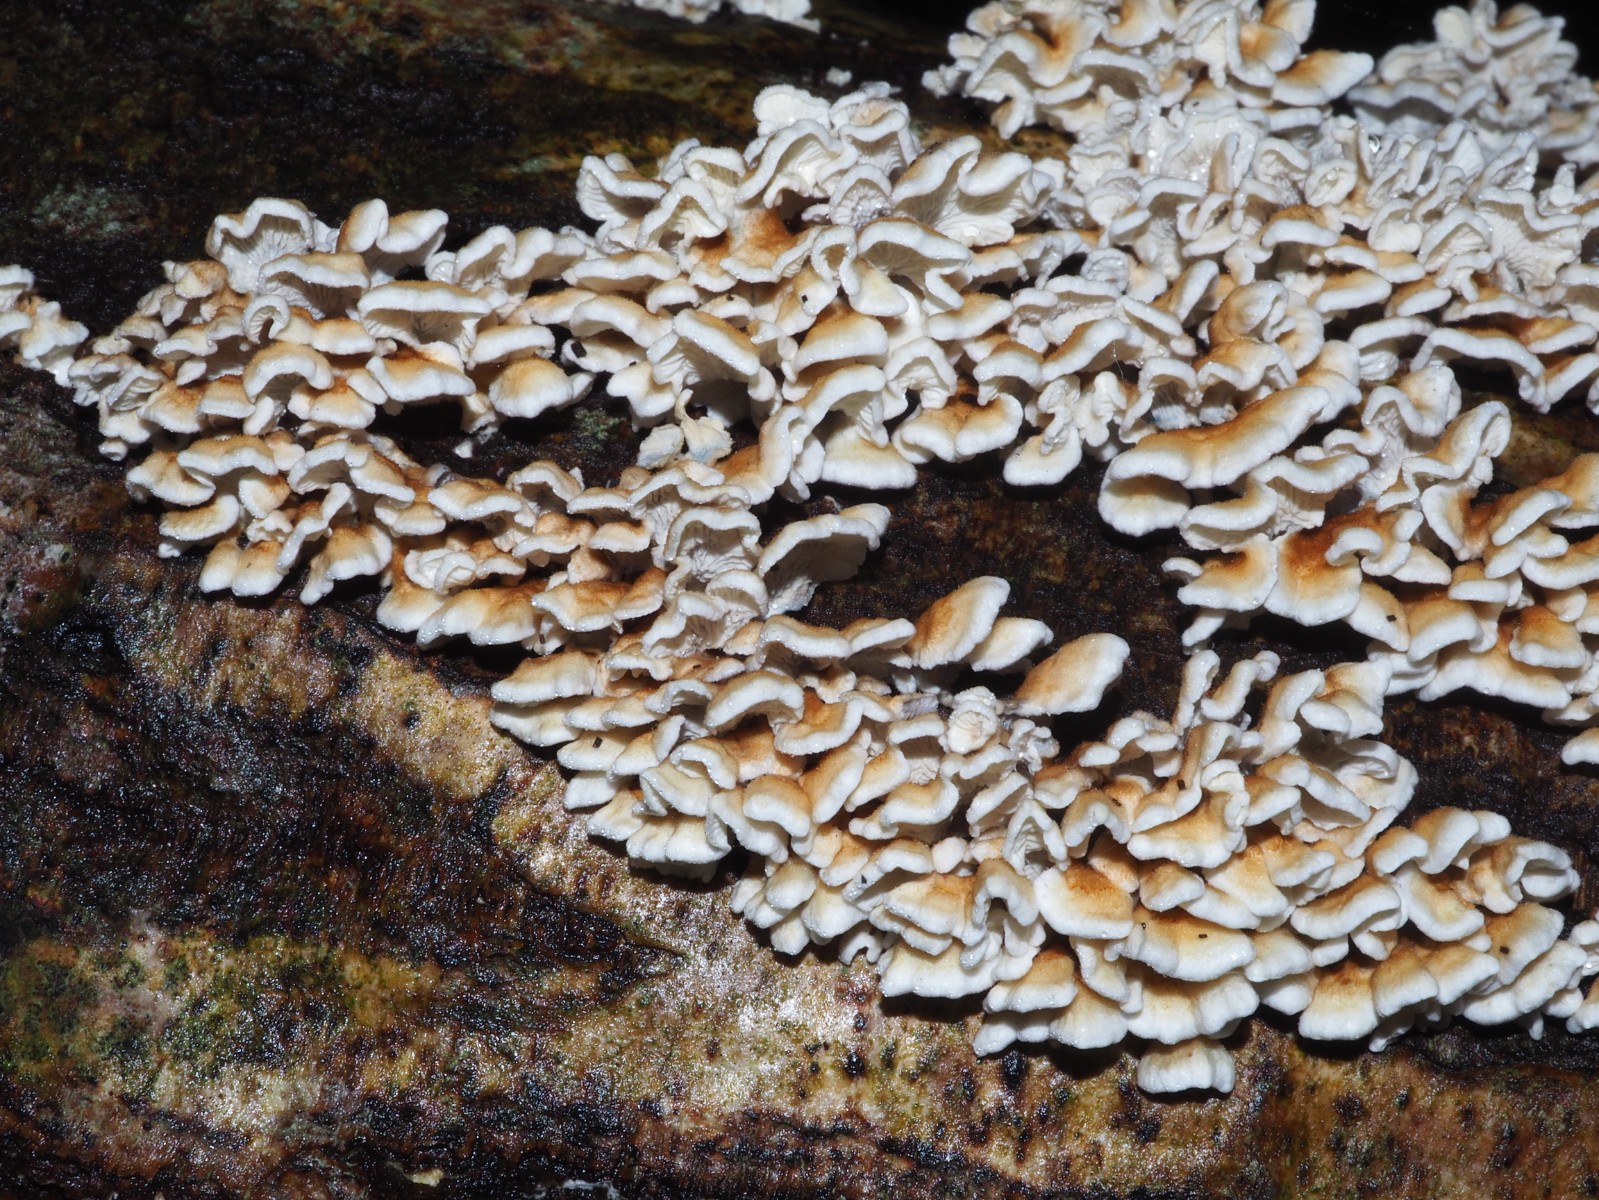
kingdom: Fungi
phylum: Basidiomycota
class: Agaricomycetes
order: Amylocorticiales
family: Amylocorticiaceae
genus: Plicaturopsis
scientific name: Plicaturopsis crispa
